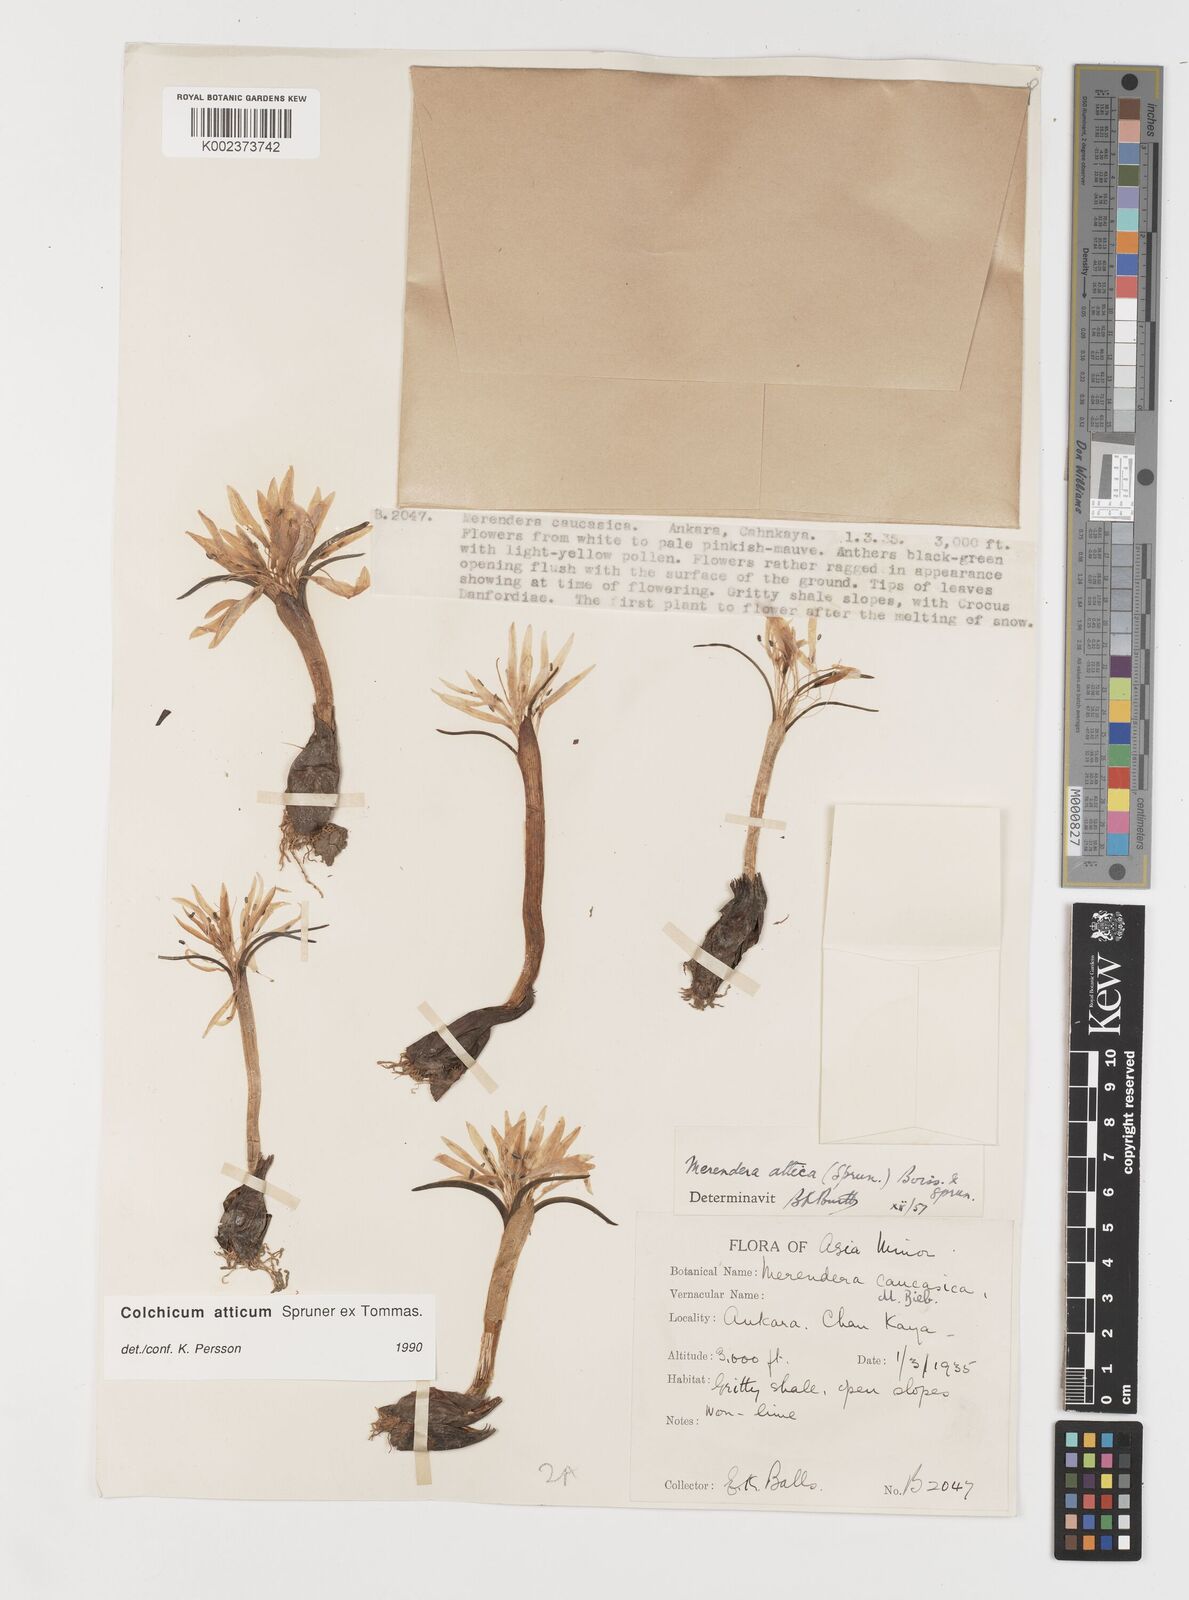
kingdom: Plantae
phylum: Tracheophyta
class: Liliopsida
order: Liliales
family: Colchicaceae
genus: Colchicum
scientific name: Colchicum atticum
